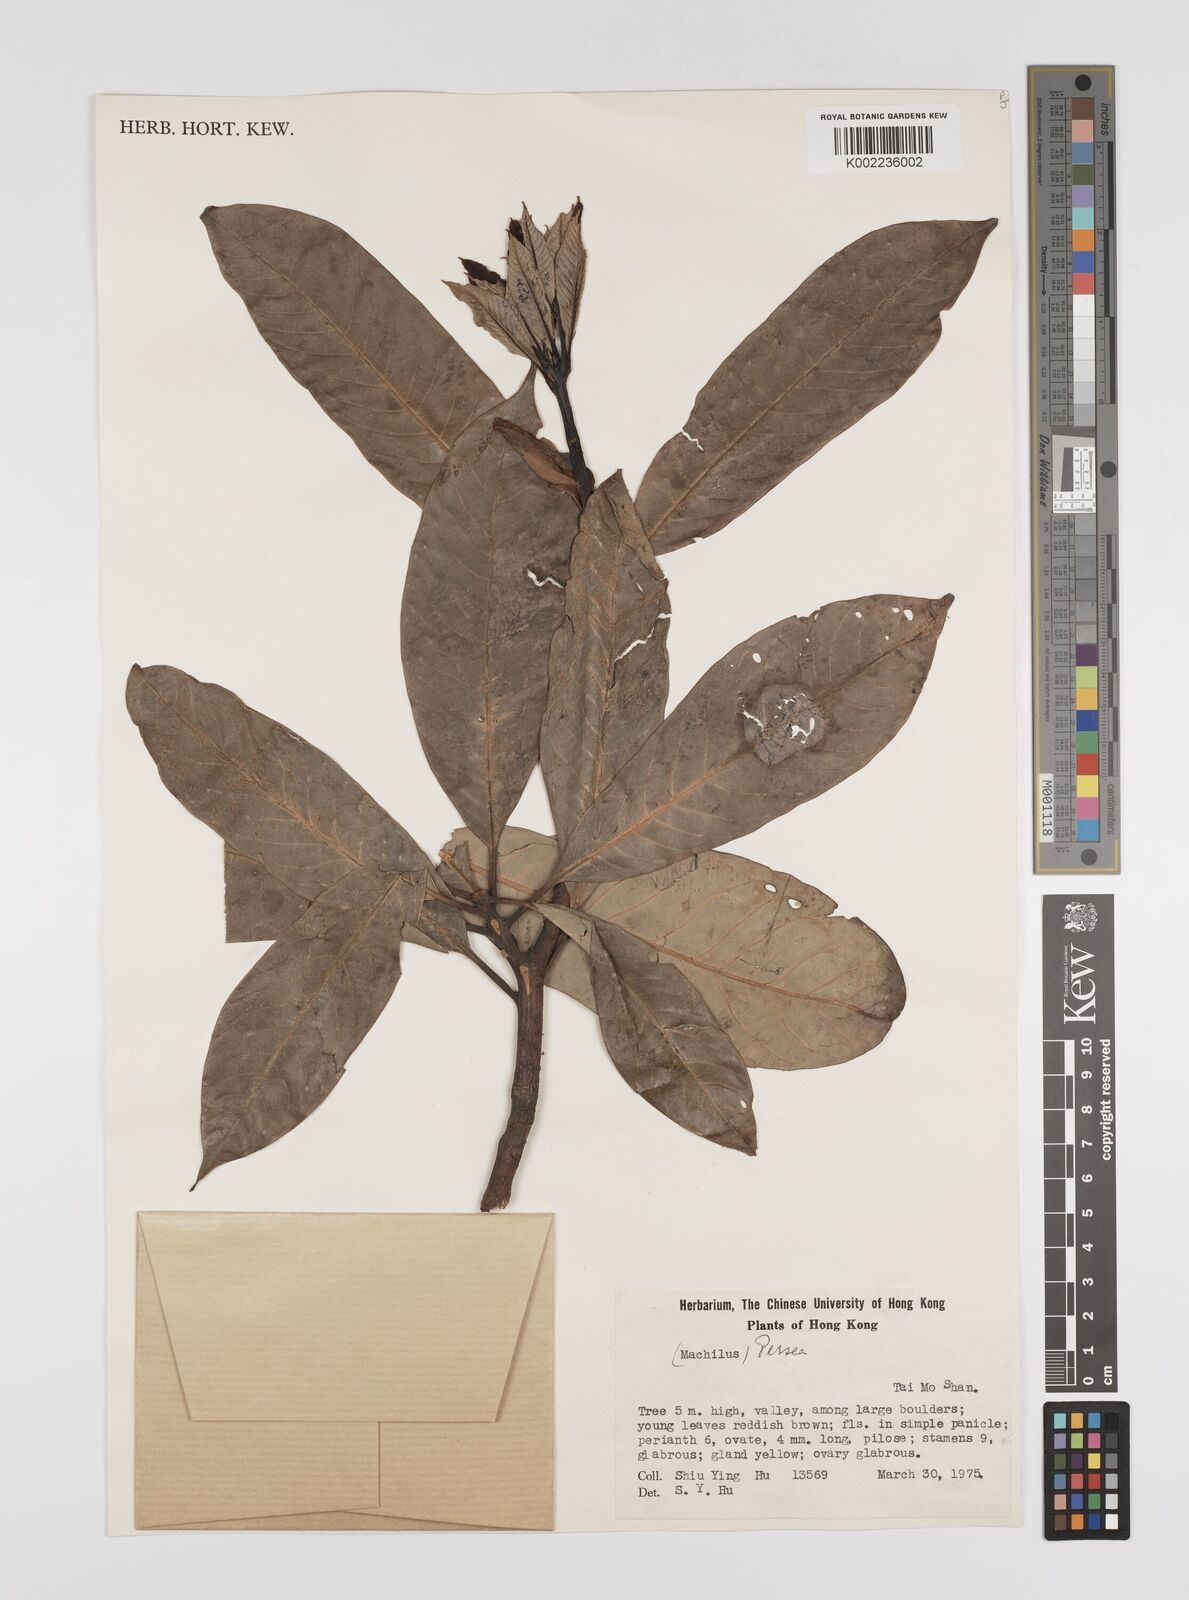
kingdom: Plantae
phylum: Tracheophyta
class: Magnoliopsida
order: Laurales
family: Lauraceae
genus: Persea
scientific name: Persea
